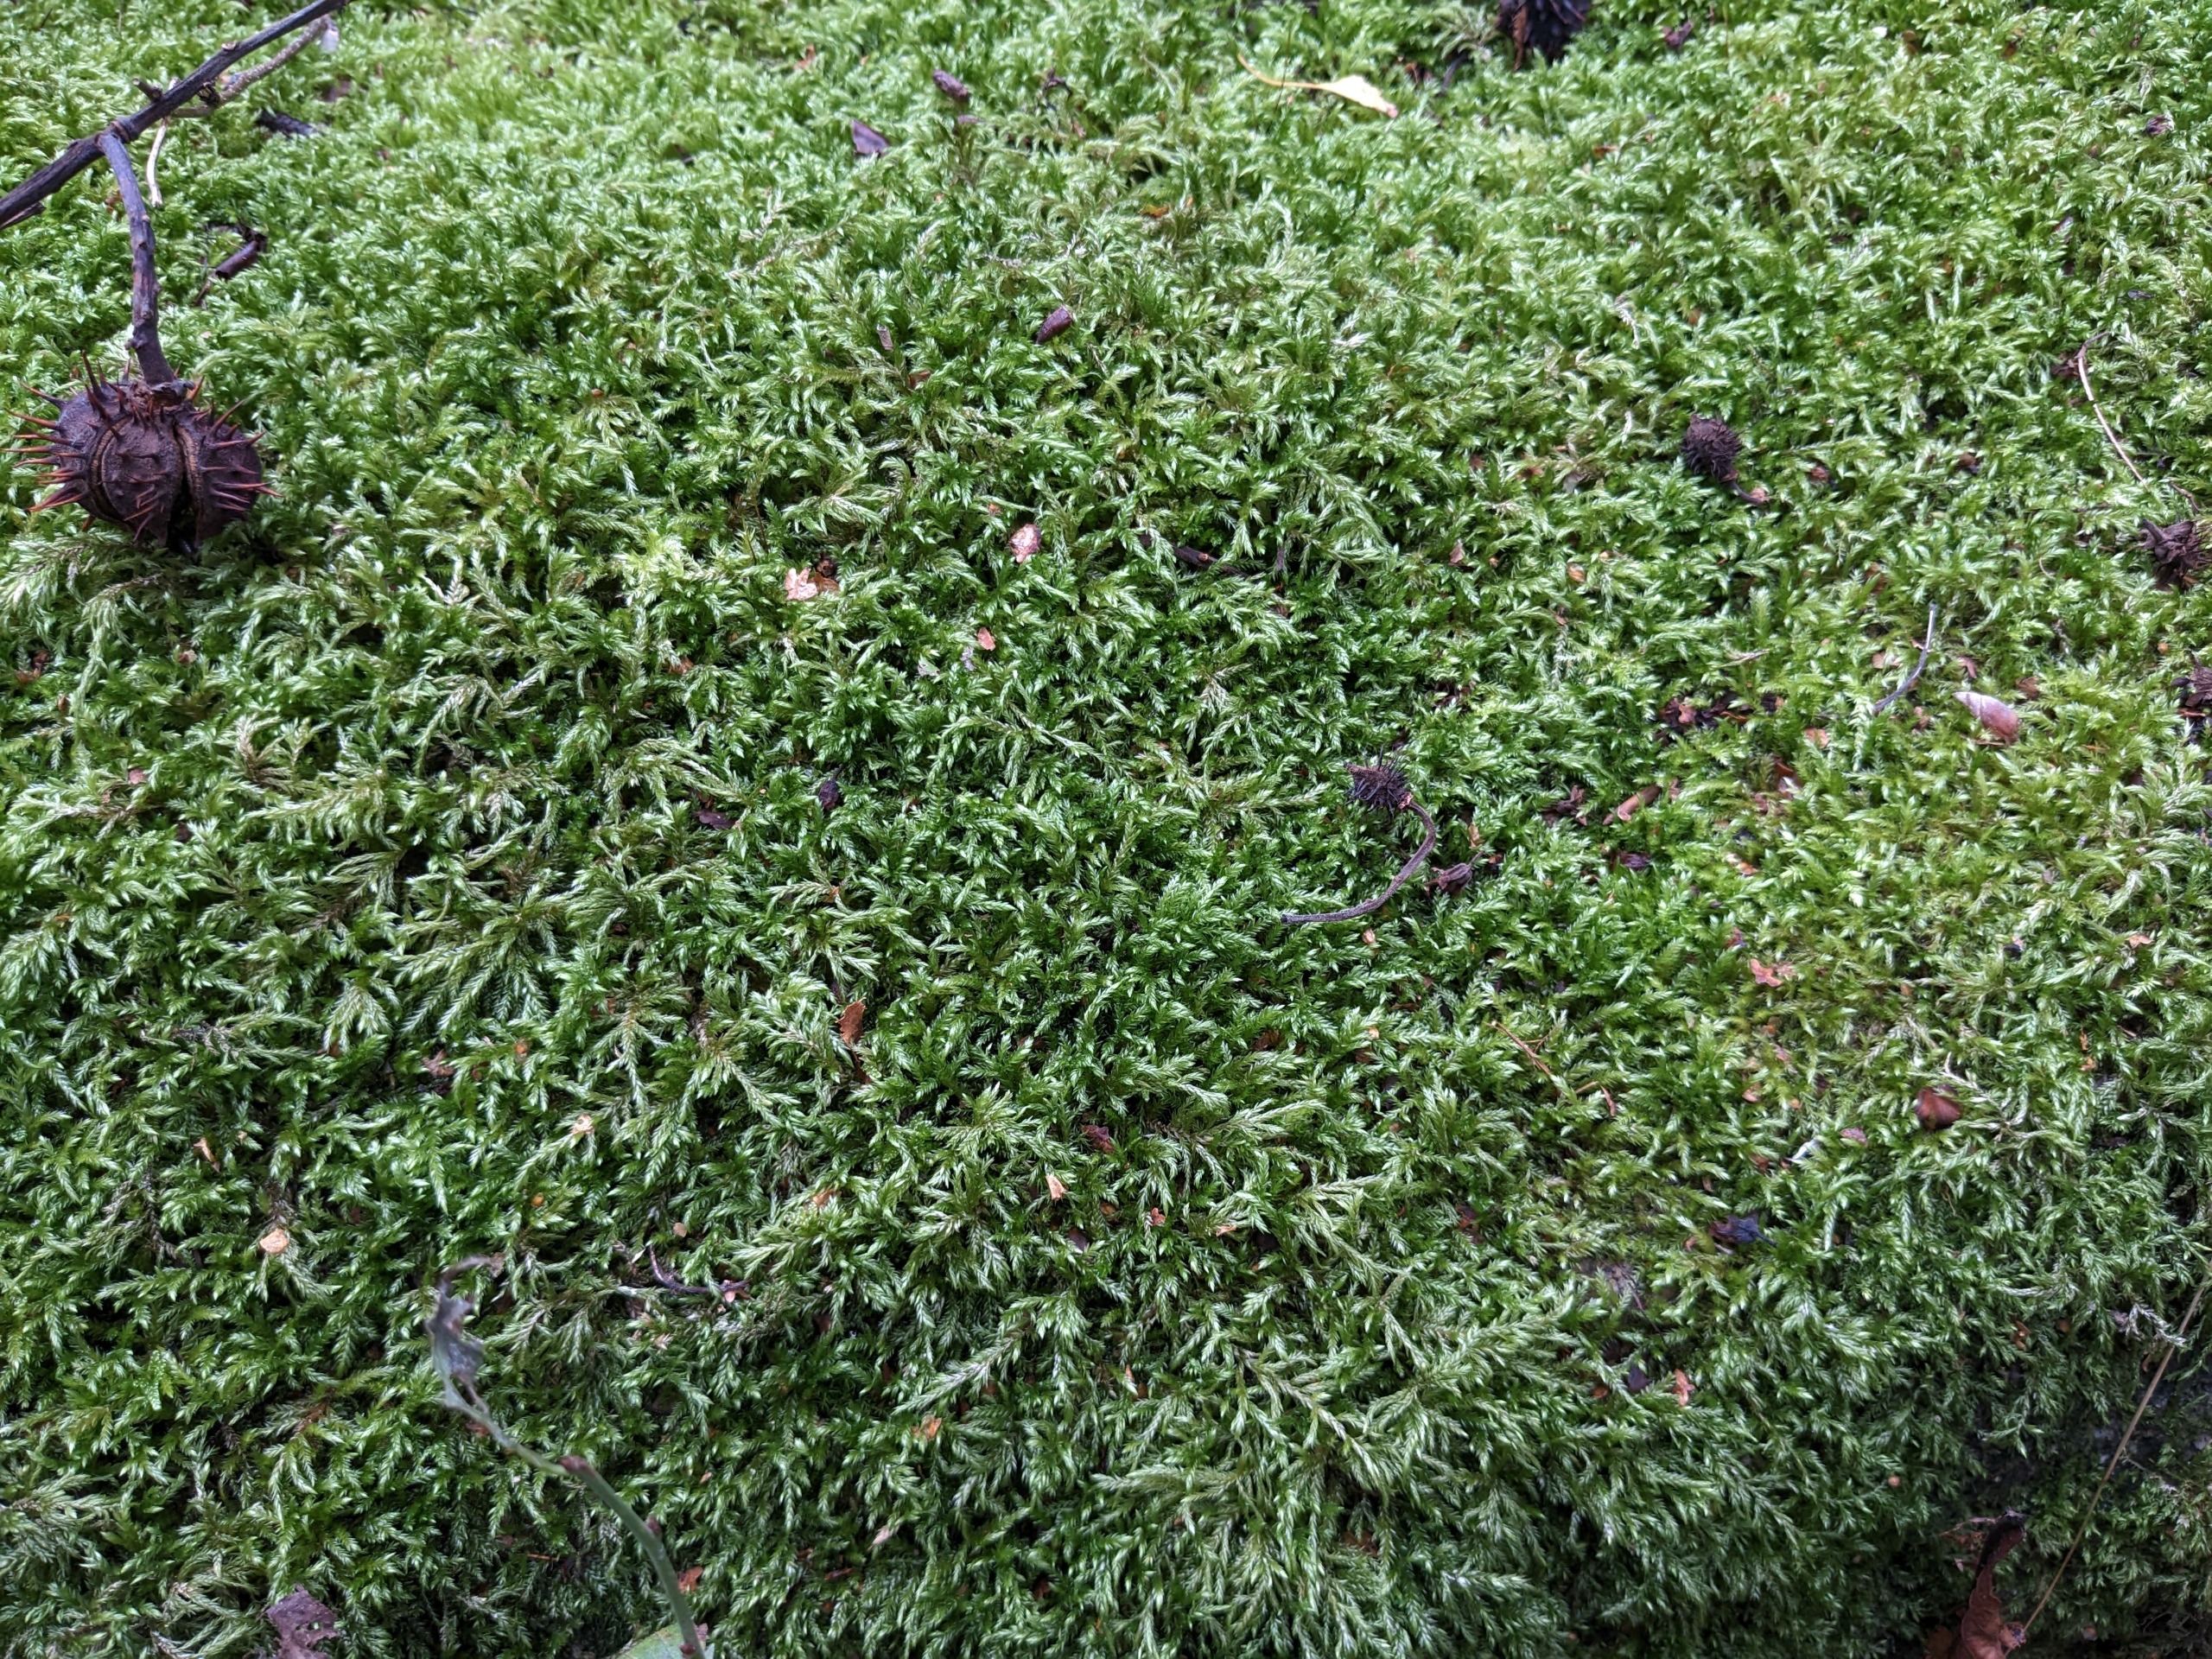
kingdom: Plantae
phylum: Bryophyta
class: Bryopsida
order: Hypnales
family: Lembophyllaceae
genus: Isothecium
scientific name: Isothecium alopecuroides
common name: Stor stammemos
